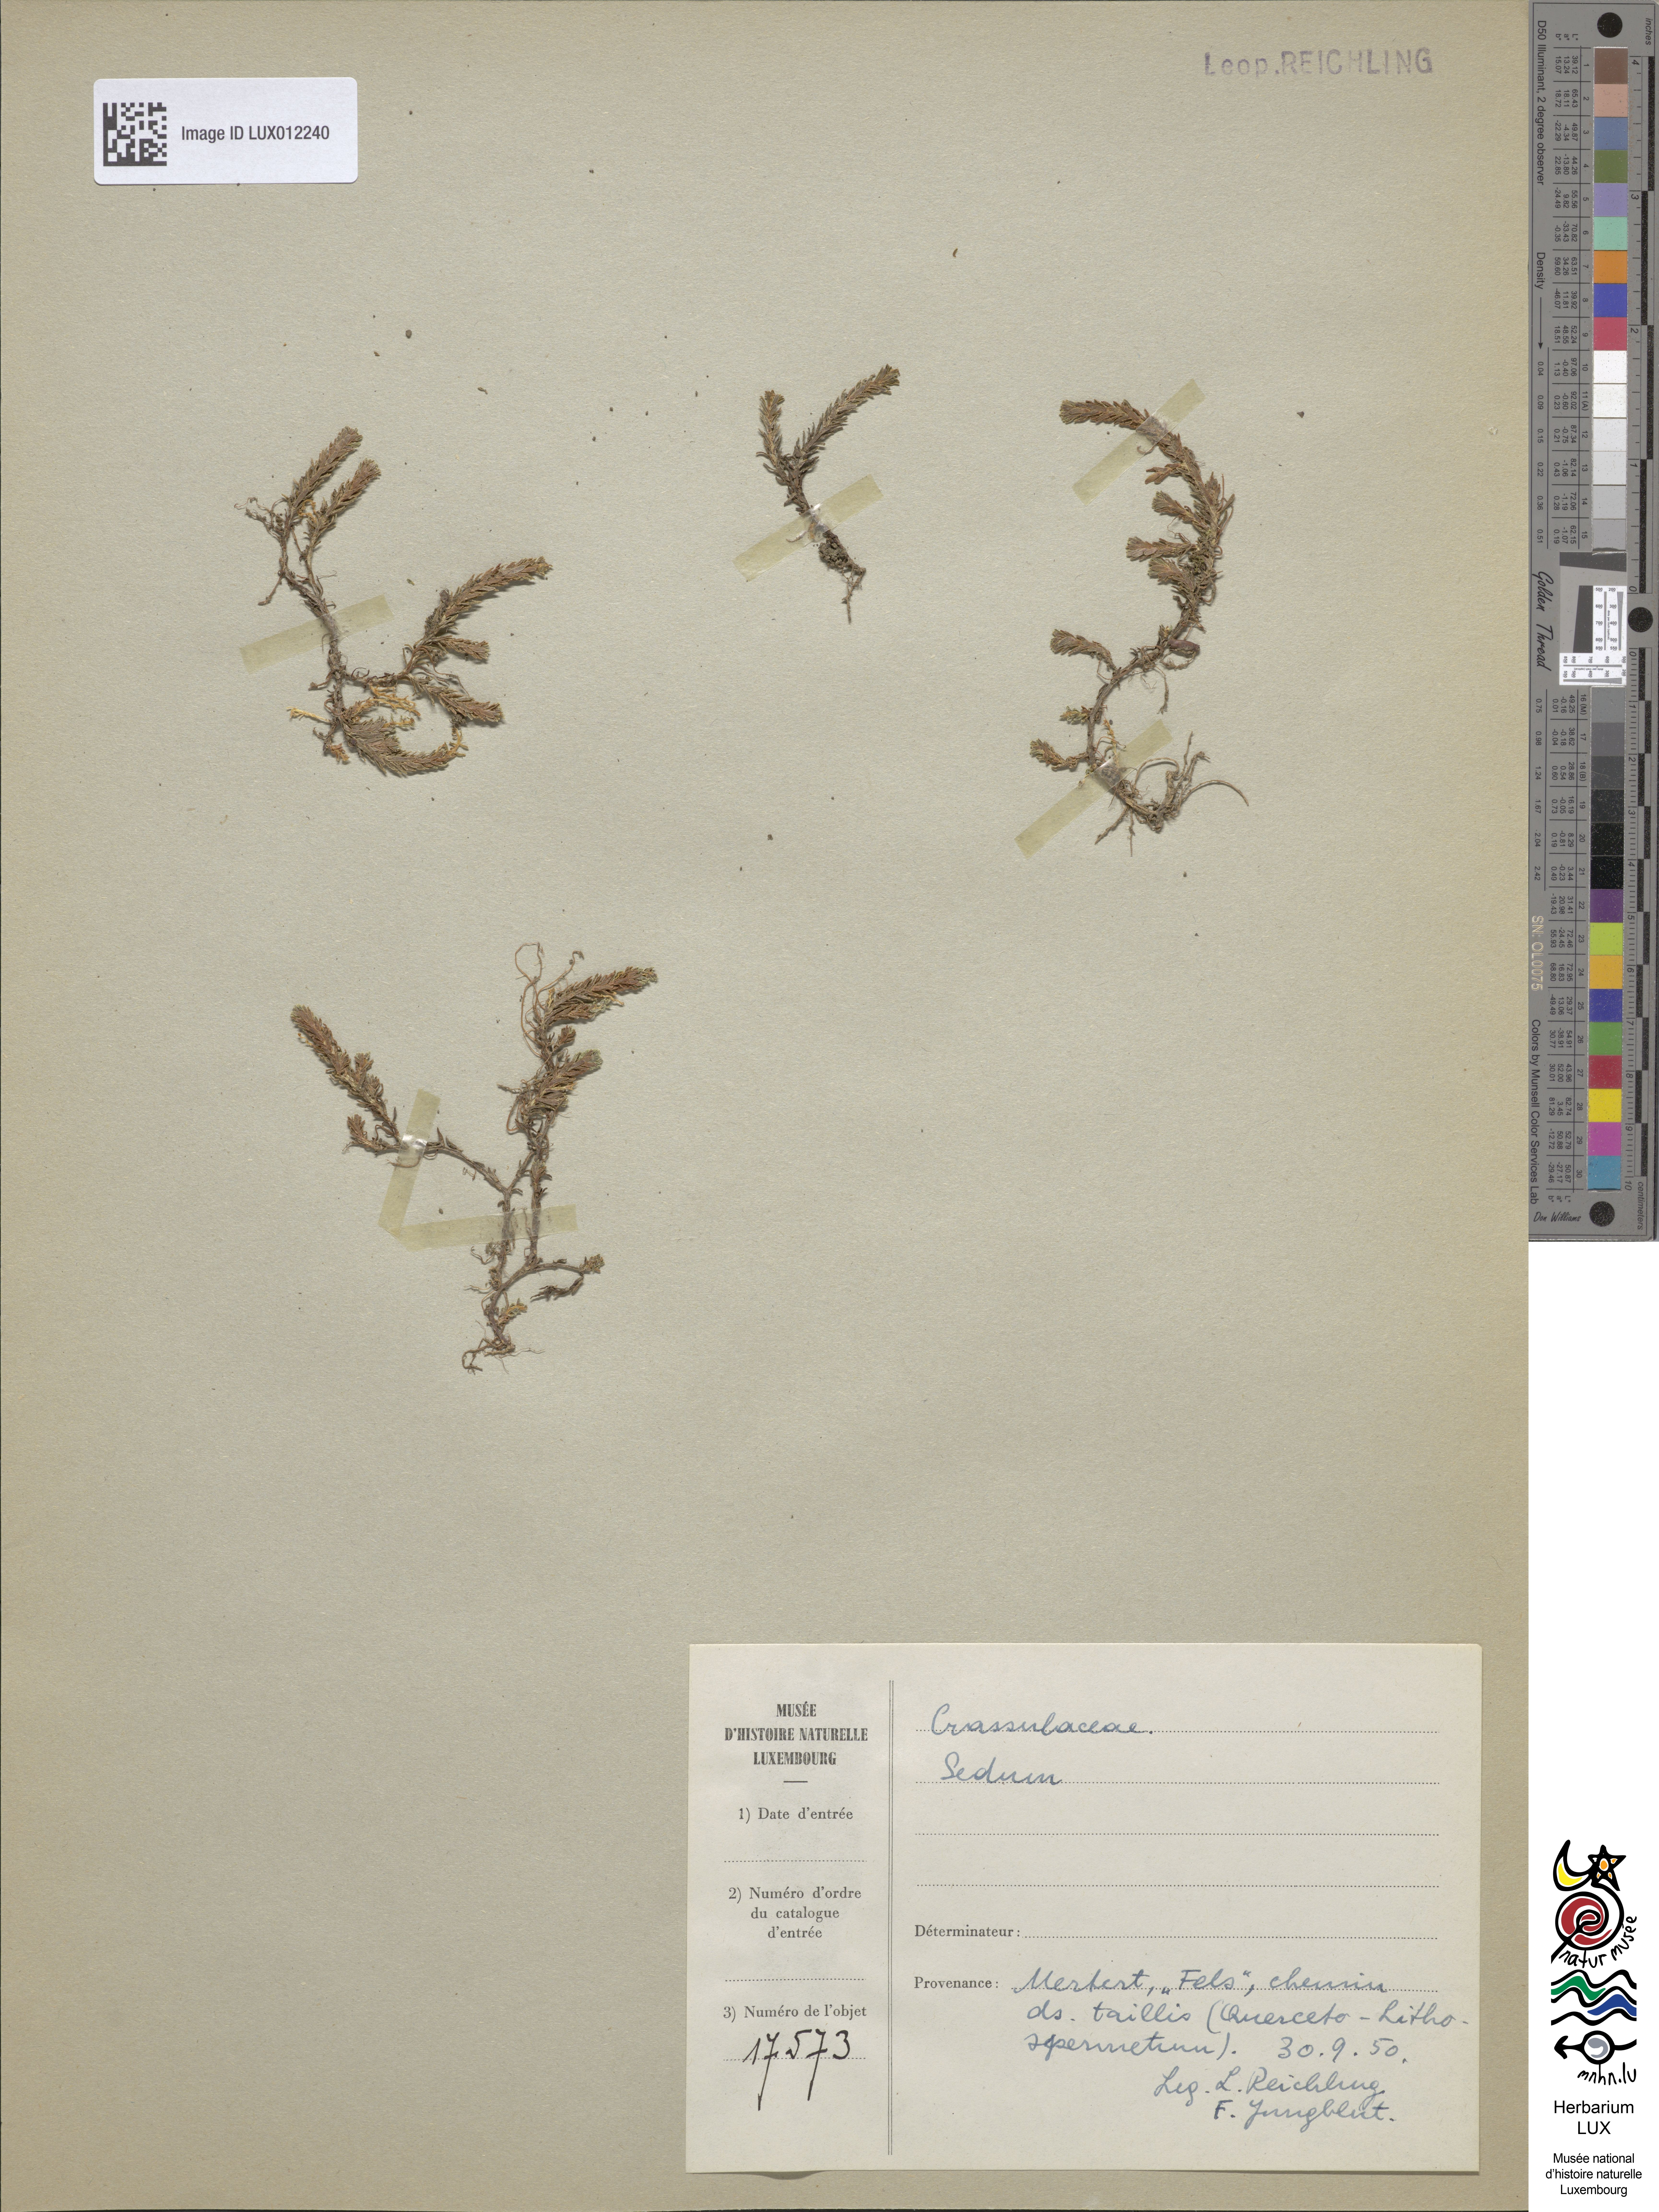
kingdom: Plantae
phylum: Tracheophyta
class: Magnoliopsida
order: Saxifragales
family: Crassulaceae
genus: Sedum
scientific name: Sedum
